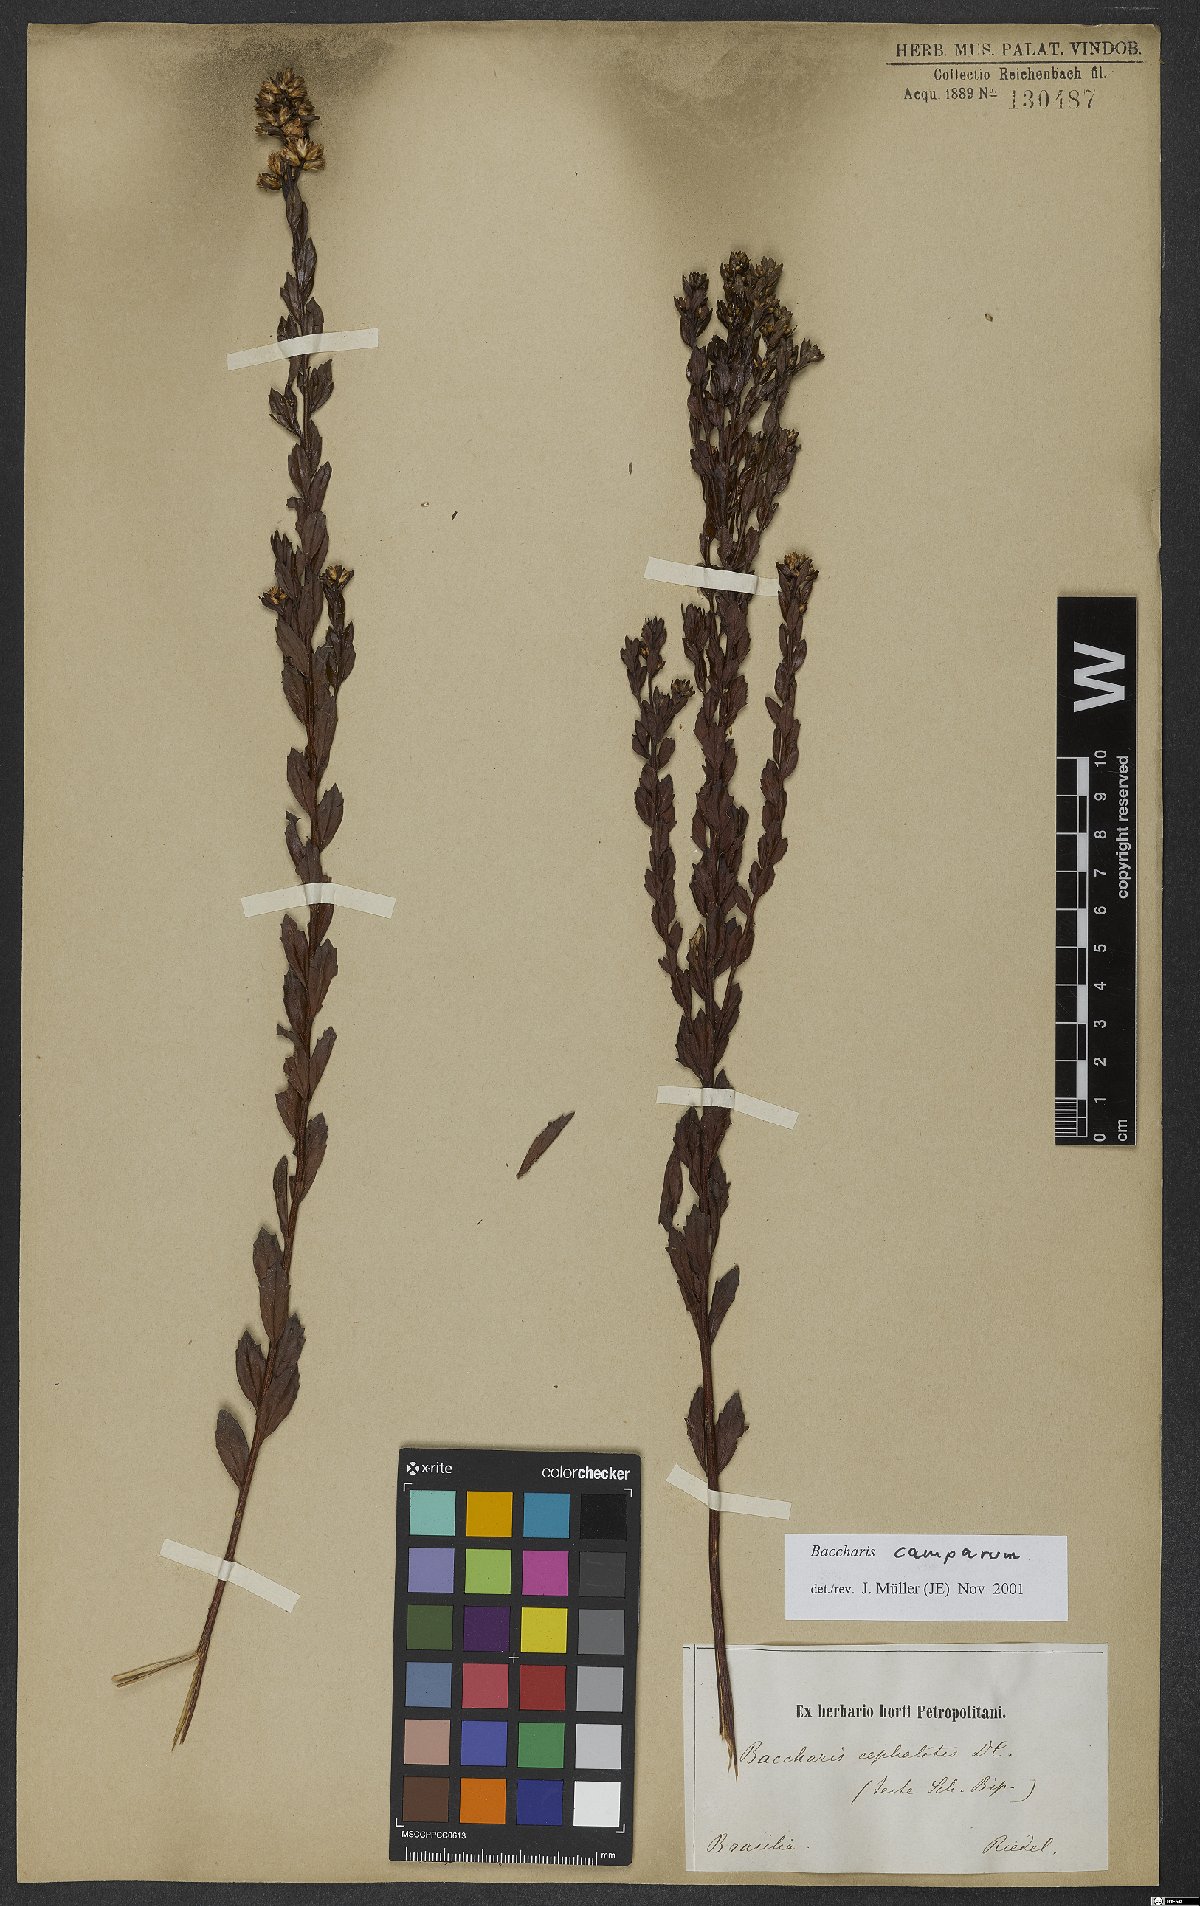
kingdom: Plantae
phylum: Tracheophyta
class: Magnoliopsida
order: Asterales
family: Asteraceae
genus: Baccharis
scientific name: Baccharis camporum
